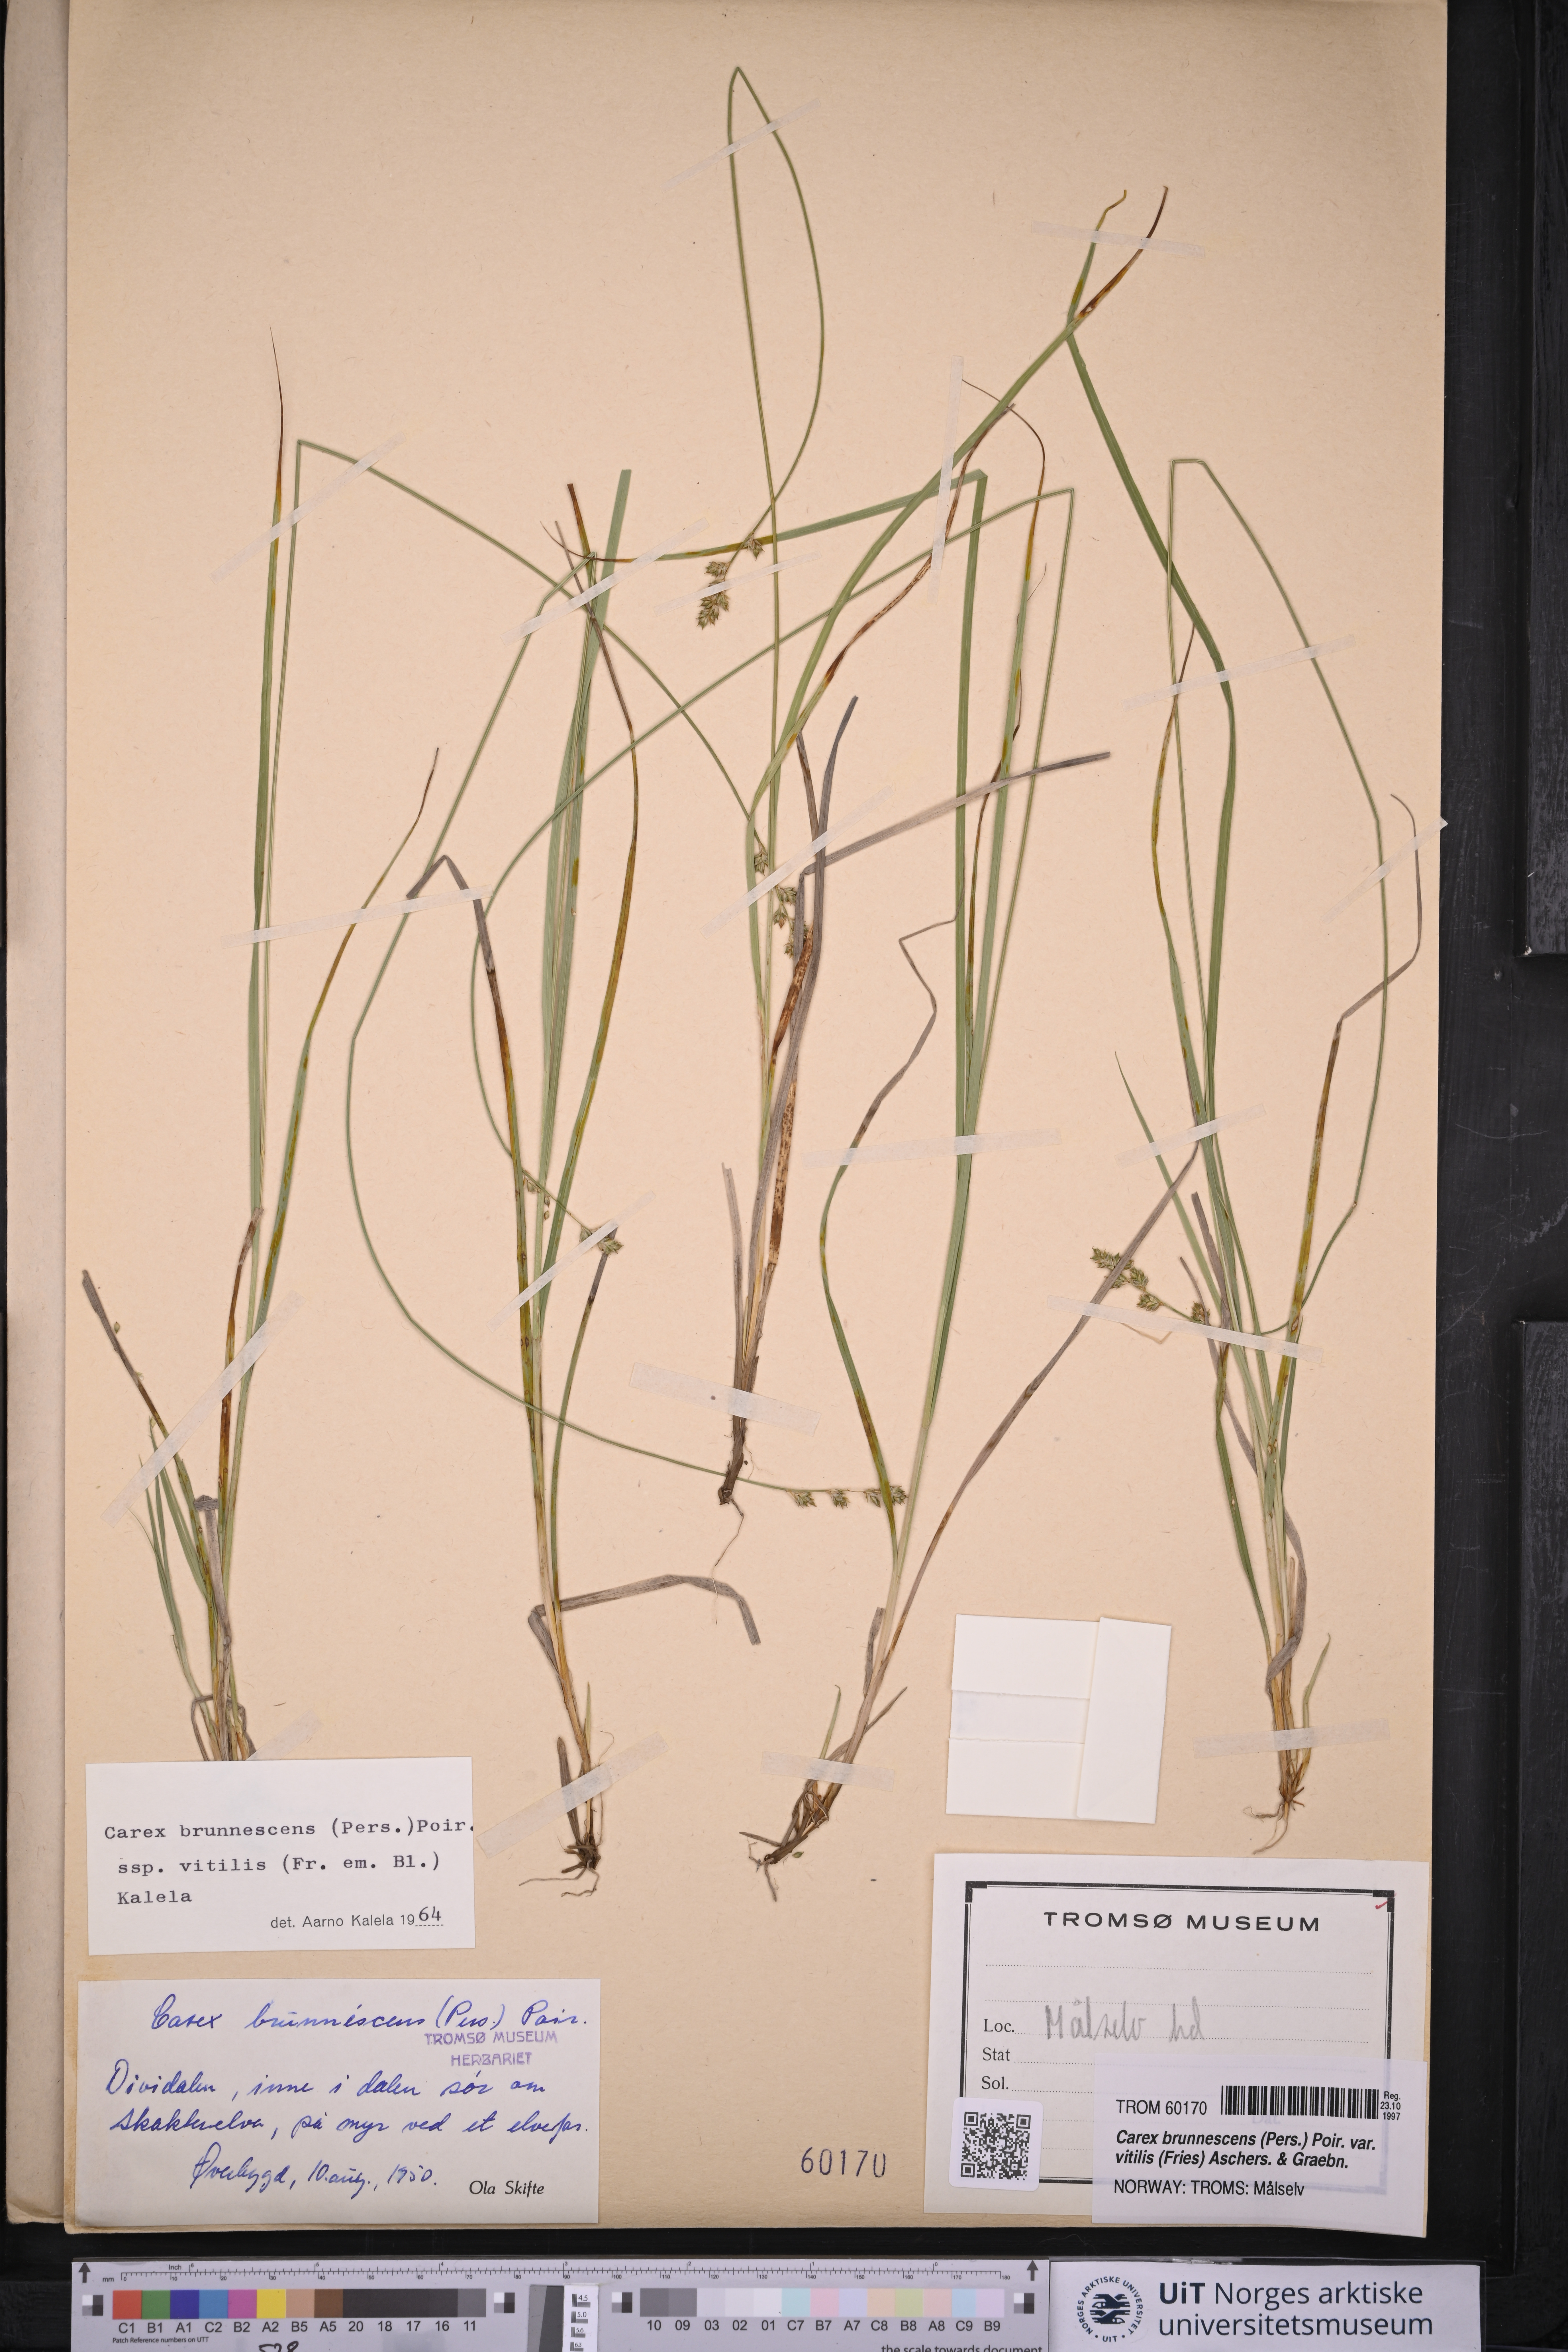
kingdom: Plantae
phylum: Tracheophyta
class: Liliopsida
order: Poales
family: Cyperaceae
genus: Carex
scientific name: Carex brunnescens
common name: Brown sedge
